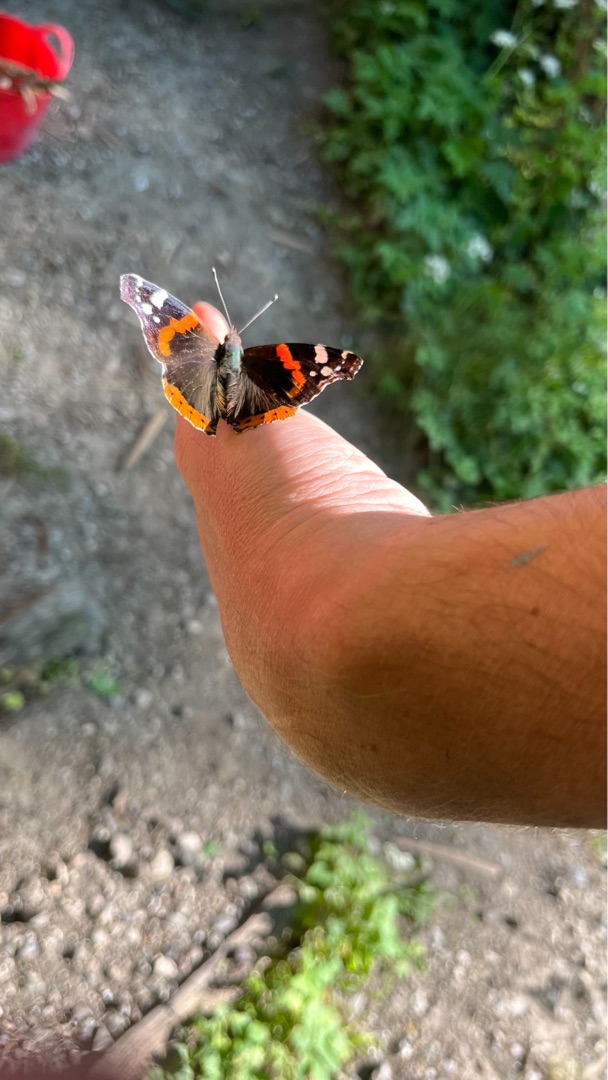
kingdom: Animalia
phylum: Arthropoda
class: Insecta
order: Lepidoptera
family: Nymphalidae
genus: Vanessa
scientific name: Vanessa atalanta
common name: Admiral
